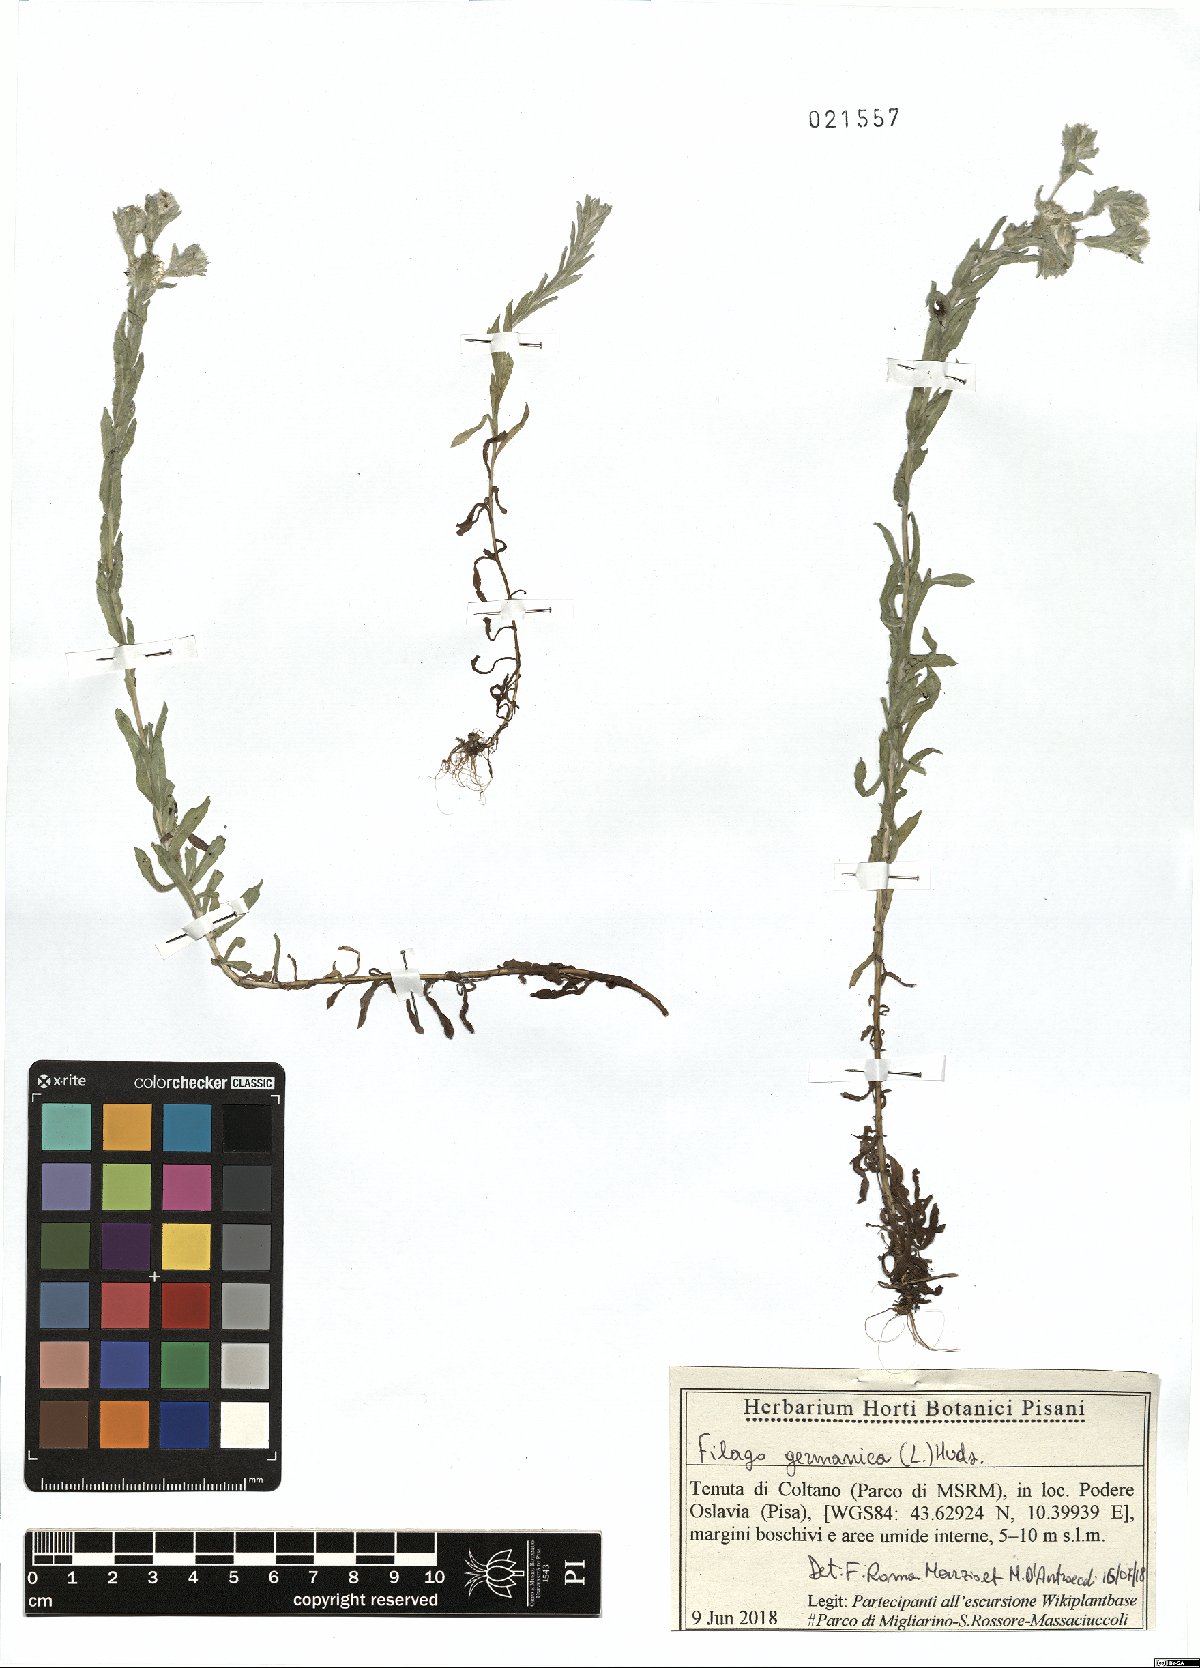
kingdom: Plantae
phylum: Tracheophyta
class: Magnoliopsida
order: Asterales
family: Asteraceae
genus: Filago
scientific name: Filago germanica
